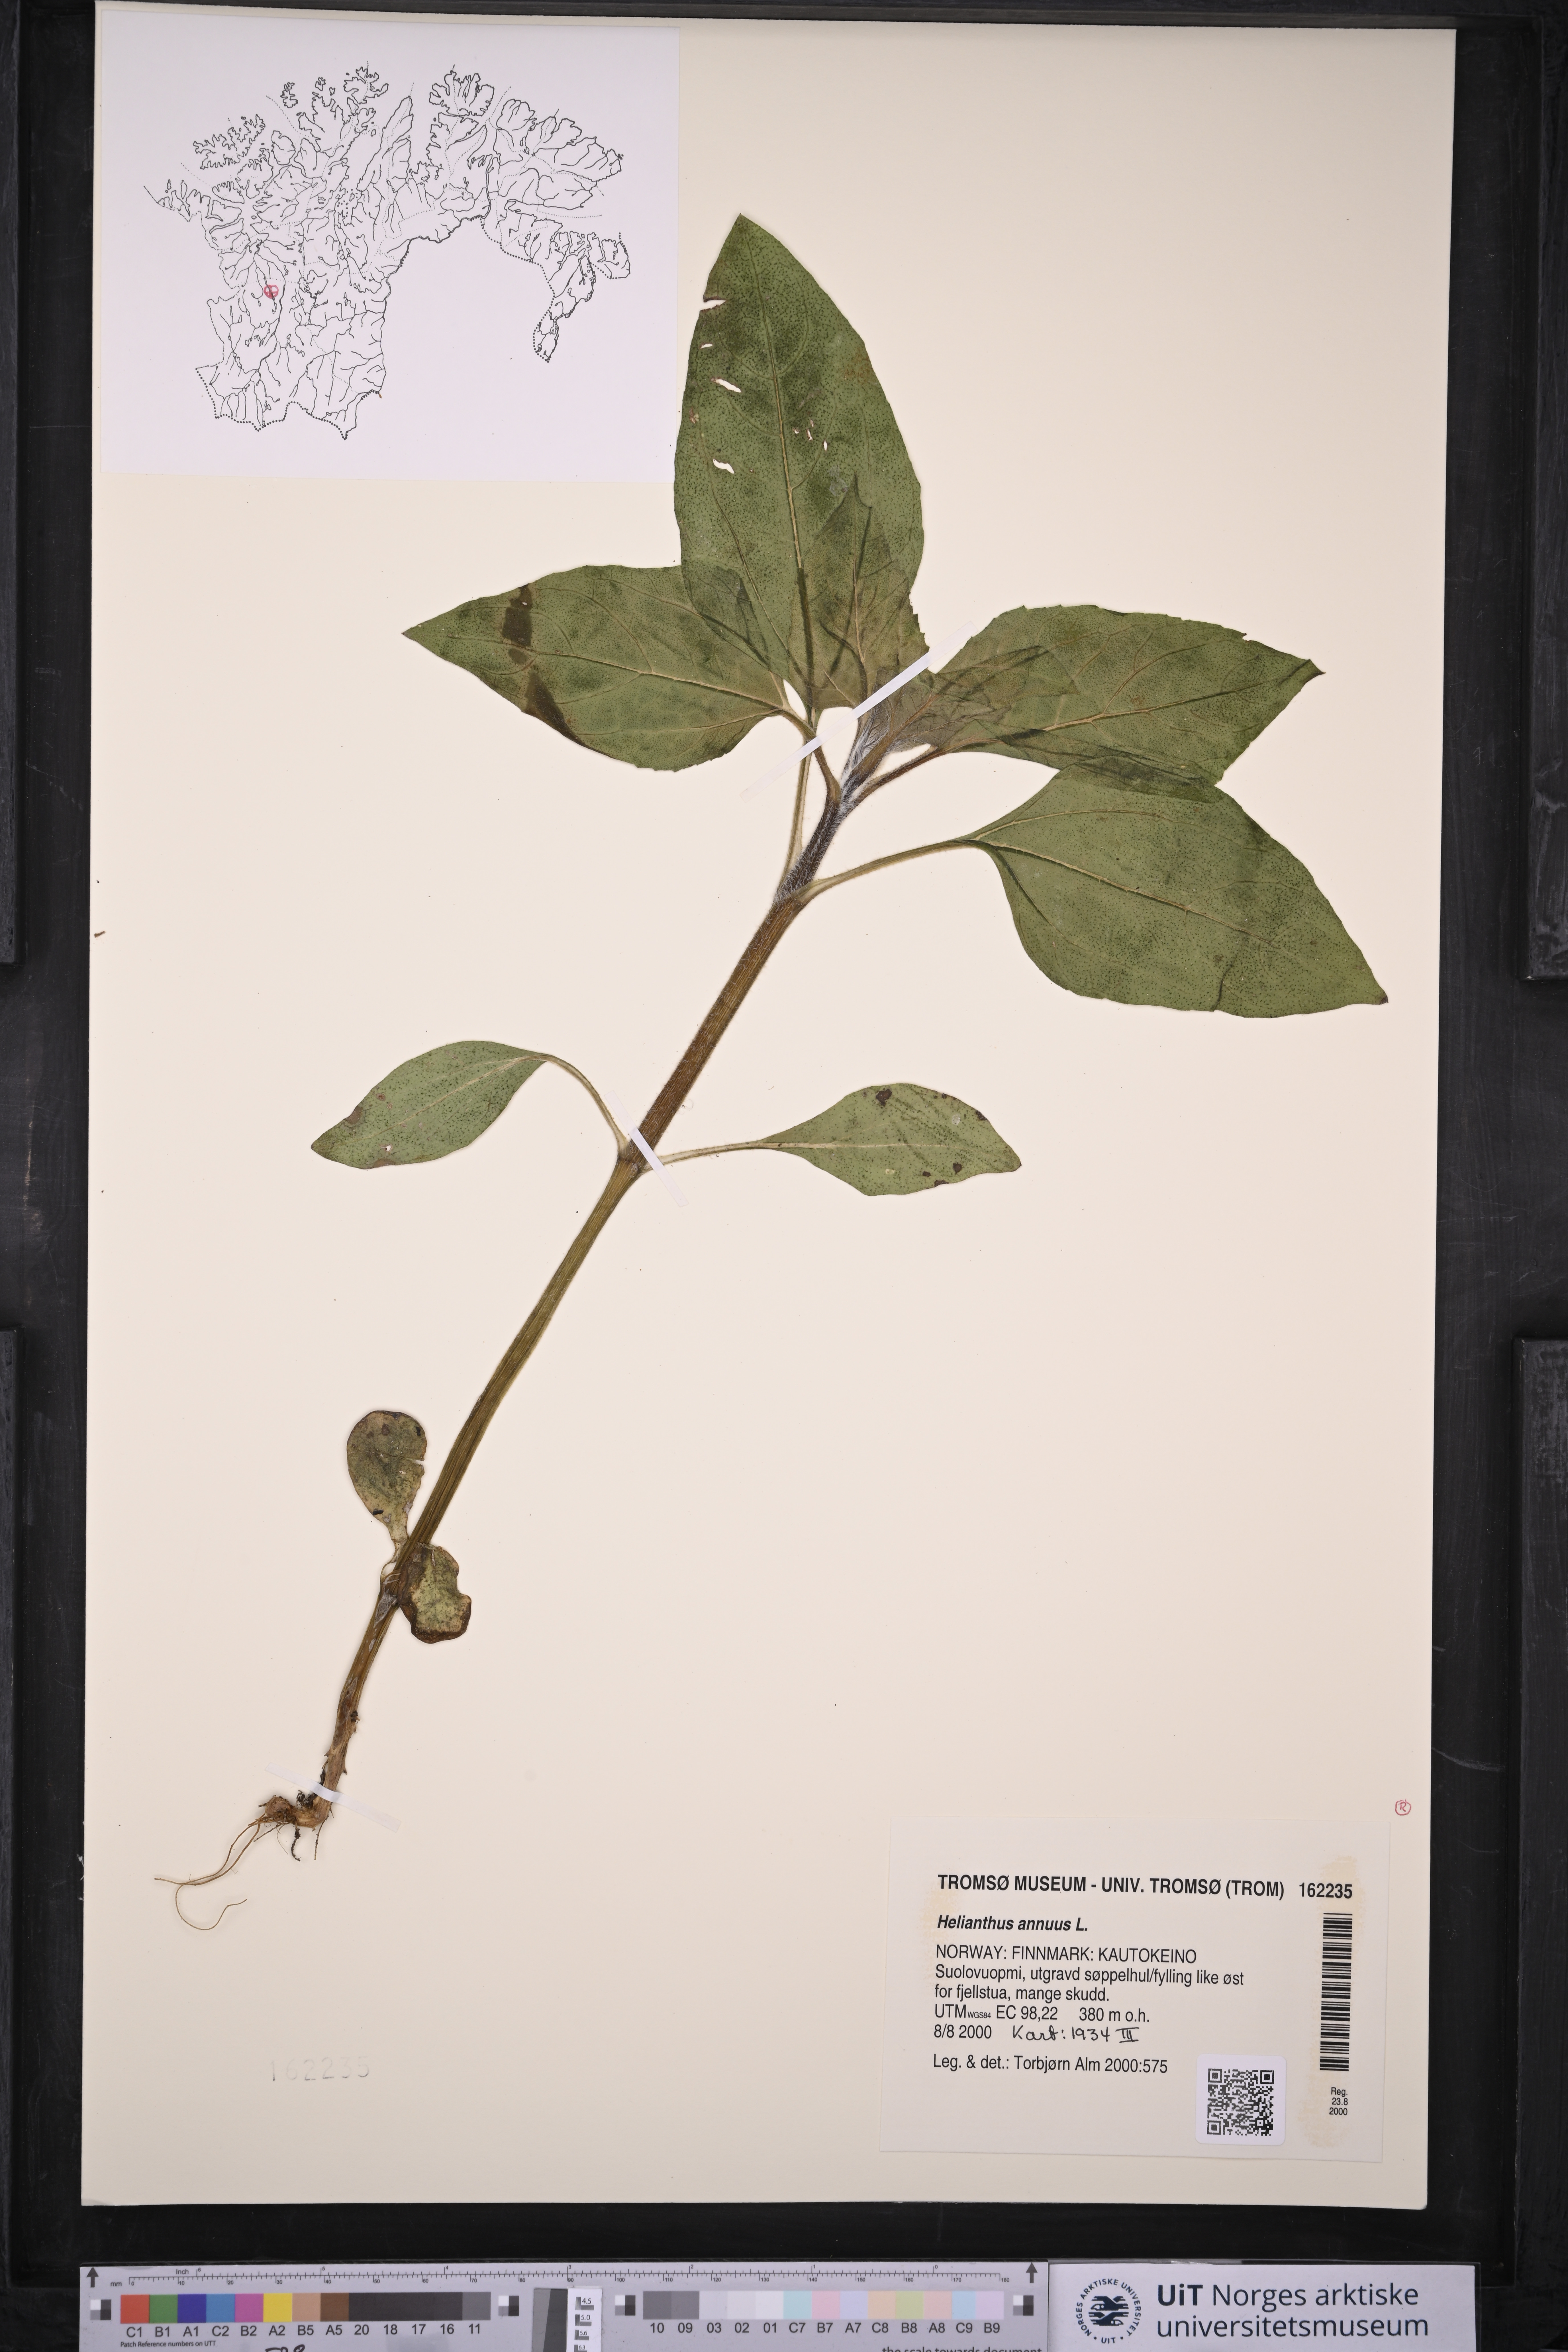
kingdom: Plantae
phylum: Tracheophyta
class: Magnoliopsida
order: Asterales
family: Asteraceae
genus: Helianthus
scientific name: Helianthus annuus
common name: Sunflower
